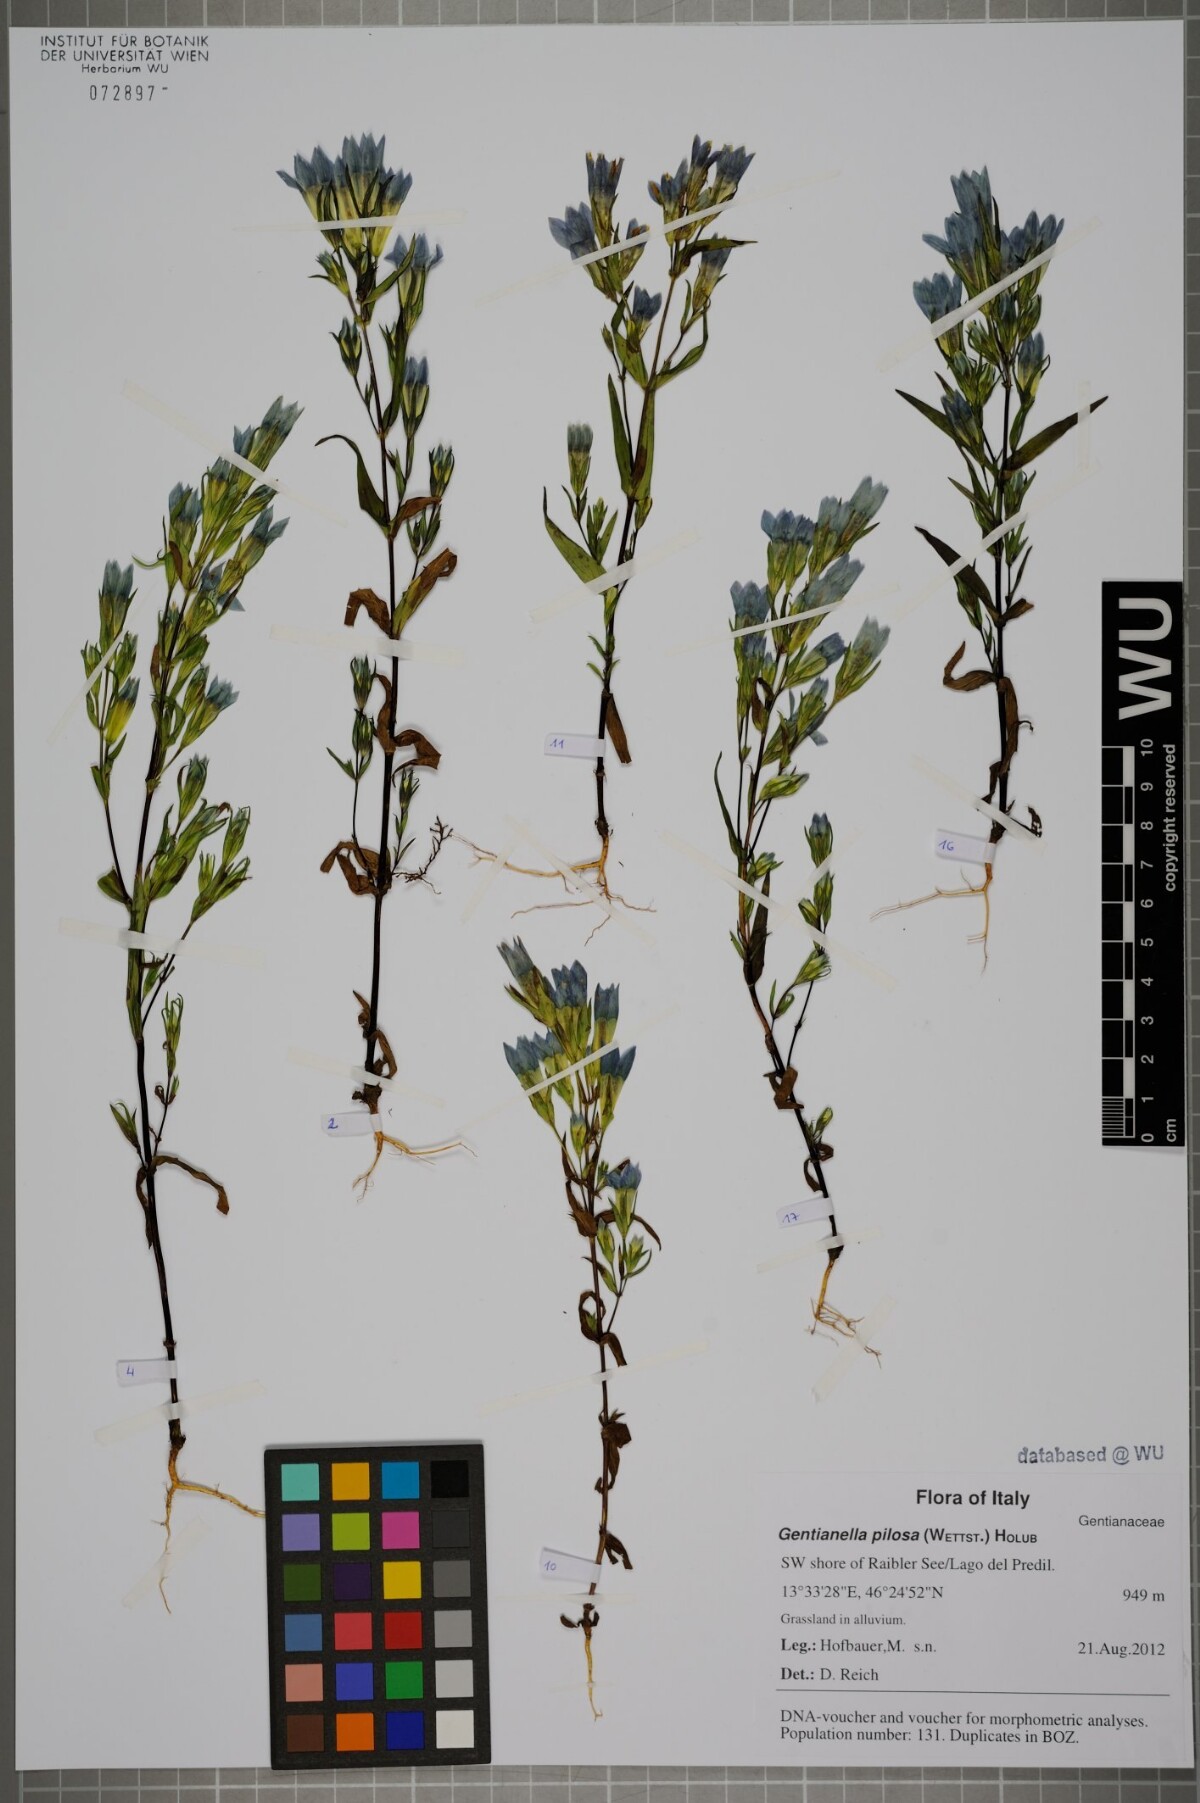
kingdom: Plantae
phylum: Tracheophyta
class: Magnoliopsida
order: Gentianales
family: Gentianaceae
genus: Gentianella
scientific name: Gentianella pilosa
